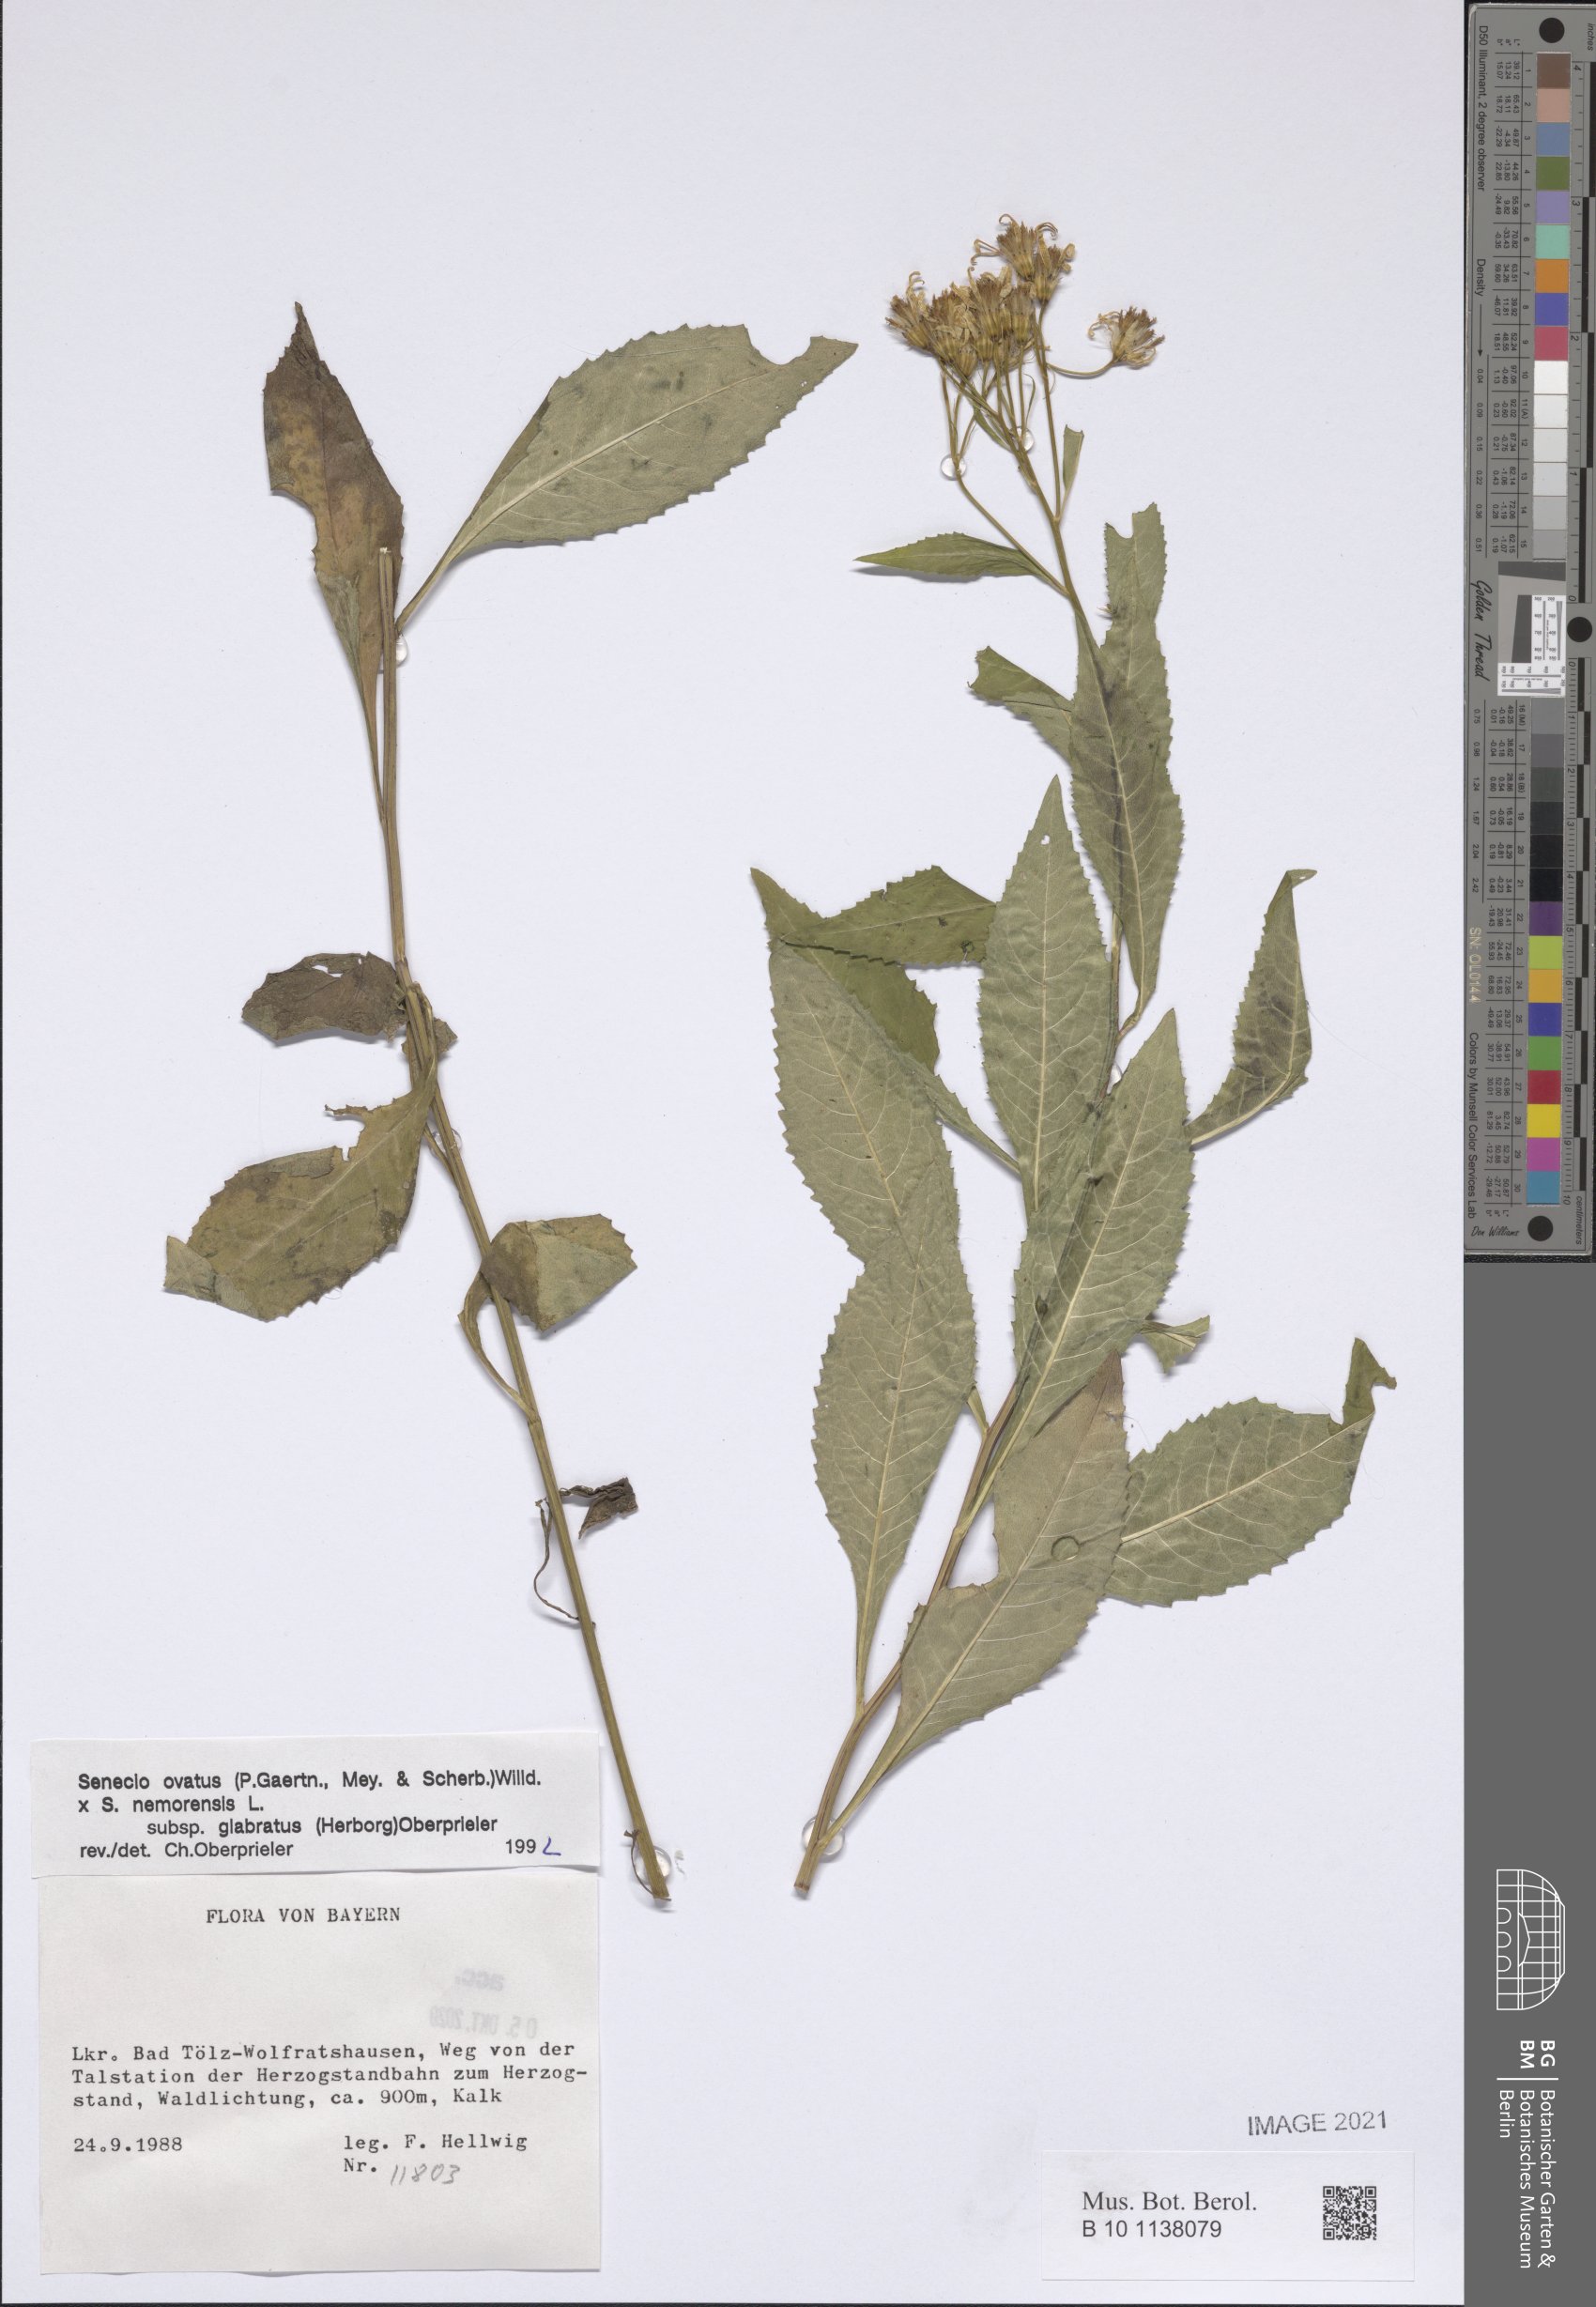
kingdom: Plantae
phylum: Tracheophyta
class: Magnoliopsida
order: Asterales
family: Asteraceae
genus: Senecio
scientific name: Senecio ovatus
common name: Wood ragwort
